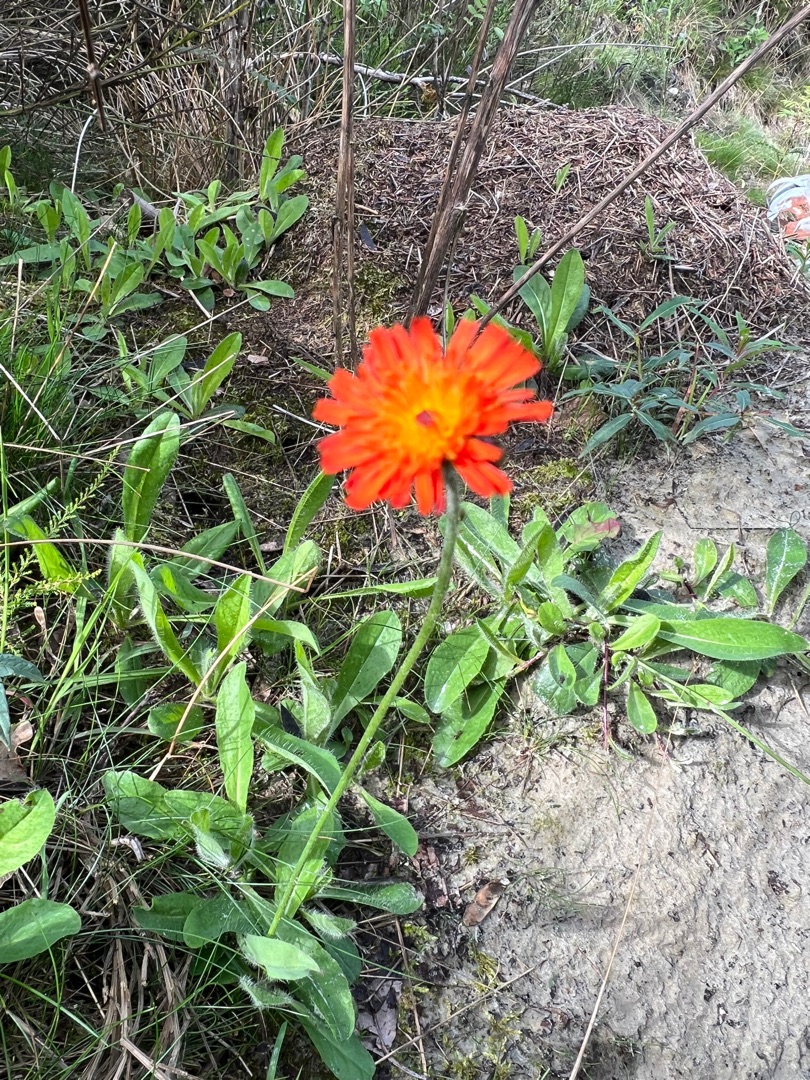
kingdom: Plantae
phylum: Tracheophyta
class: Magnoliopsida
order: Asterales
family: Asteraceae
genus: Pilosella
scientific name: Pilosella aurantiaca
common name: Pomerans-høgeurt
